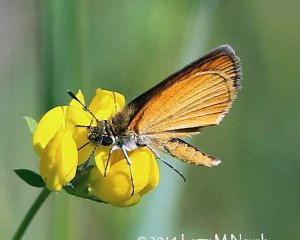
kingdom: Animalia
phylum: Arthropoda
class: Insecta
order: Lepidoptera
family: Hesperiidae
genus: Ancyloxypha
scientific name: Ancyloxypha numitor
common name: Least Skipper
